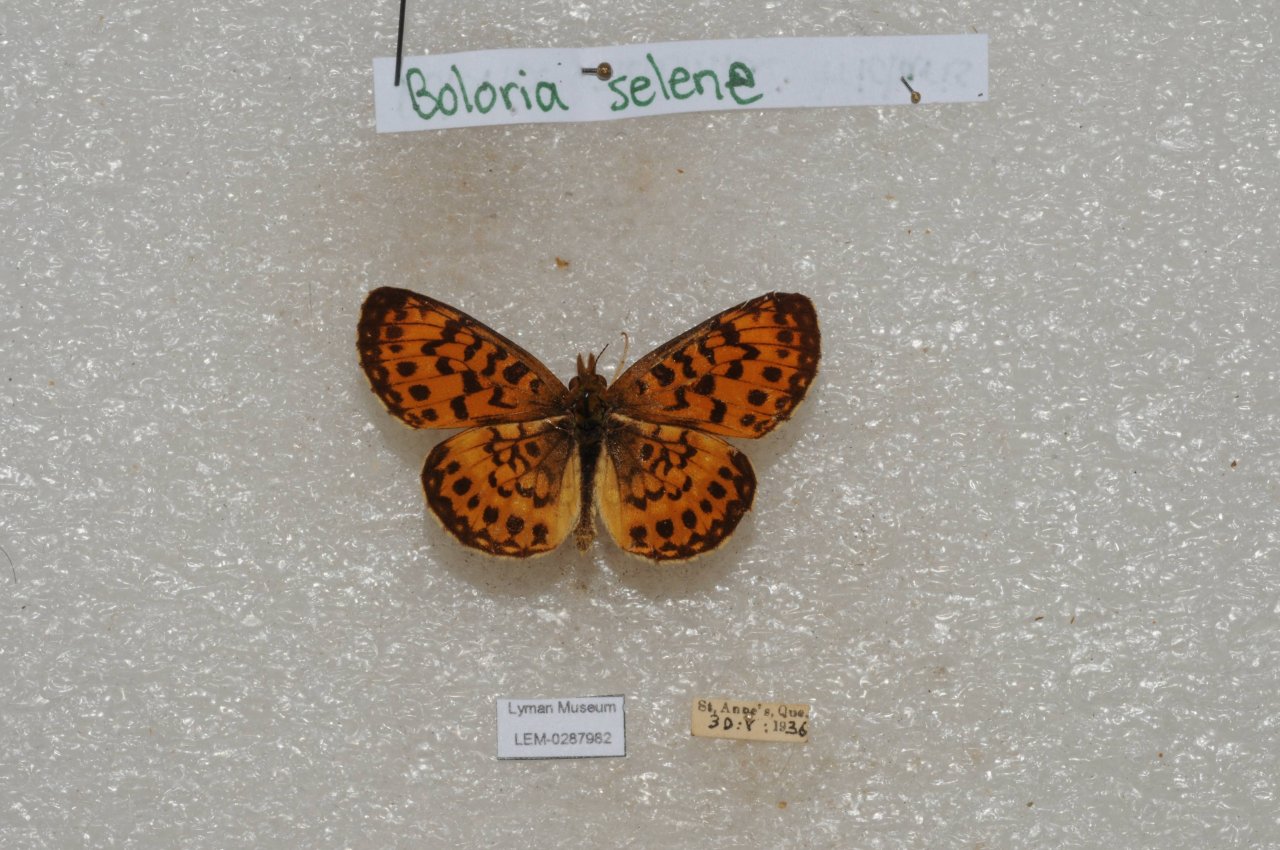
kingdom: Animalia
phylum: Arthropoda
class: Insecta
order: Lepidoptera
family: Nymphalidae
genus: Boloria
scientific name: Boloria selene
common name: Silver-bordered Fritillary
